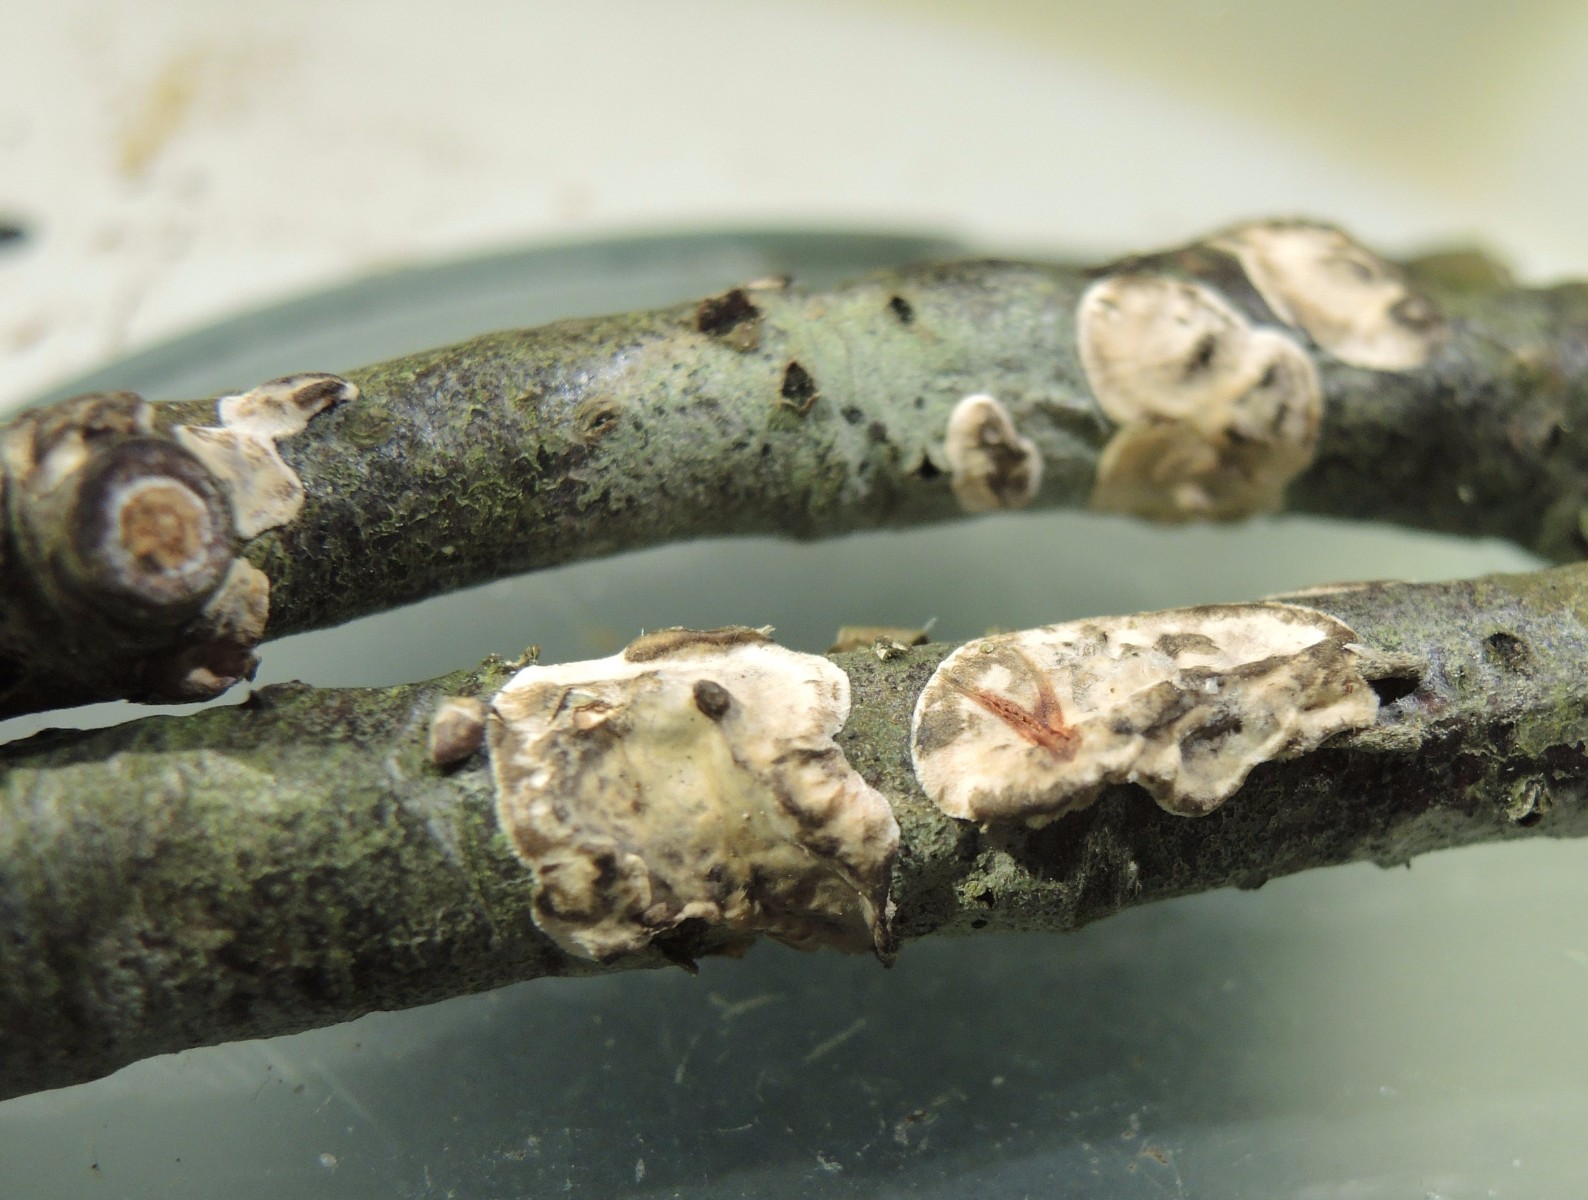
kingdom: Fungi
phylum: Basidiomycota
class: Agaricomycetes
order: Russulales
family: Stereaceae
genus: Stereum
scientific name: Stereum
